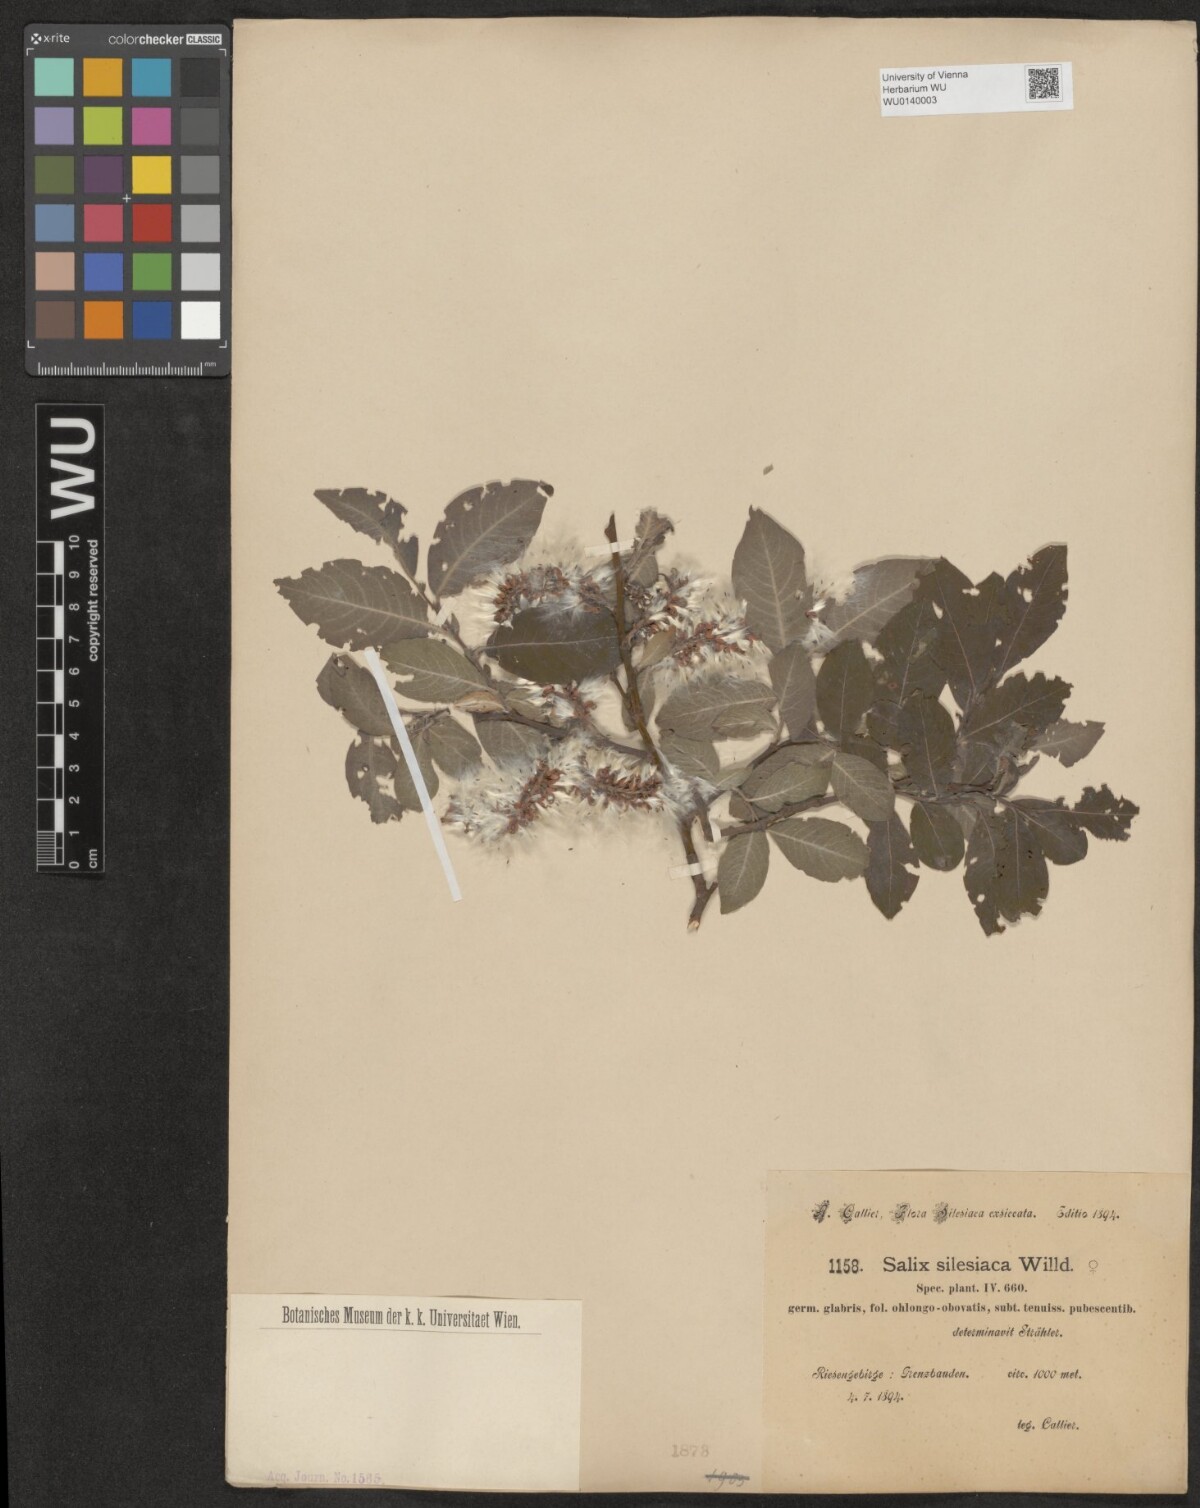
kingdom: Plantae
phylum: Tracheophyta
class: Magnoliopsida
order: Malpighiales
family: Salicaceae
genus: Salix
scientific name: Salix silesiaca
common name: Silesian willow
